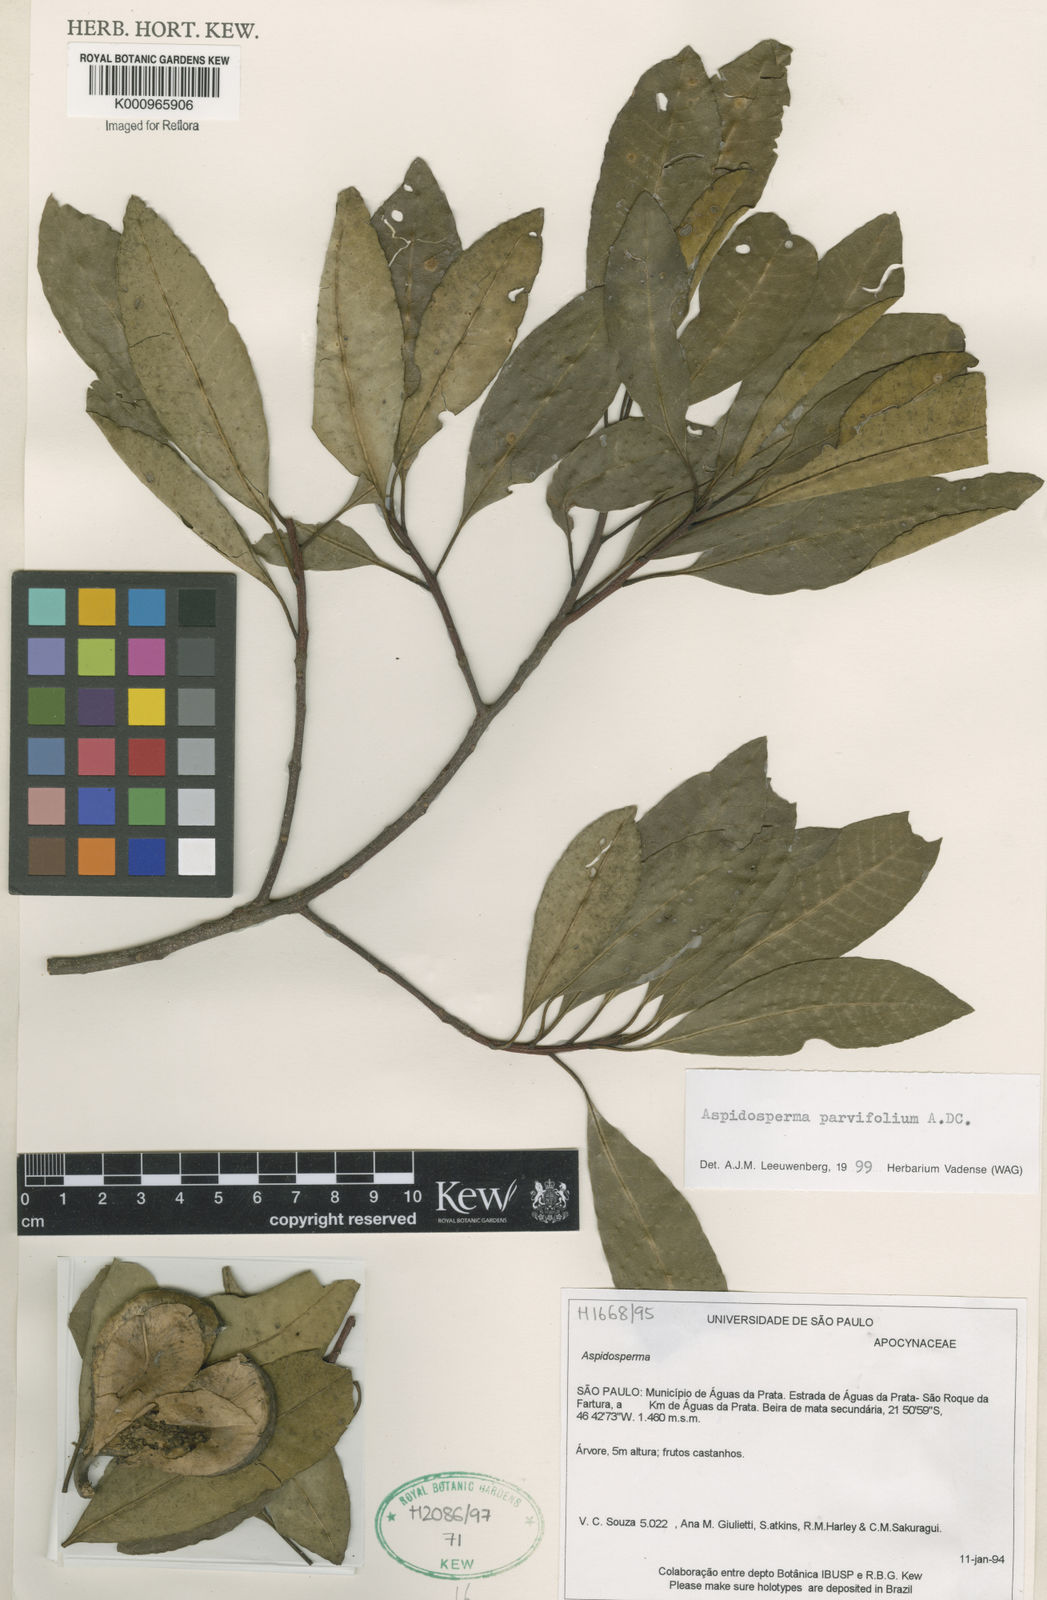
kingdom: Plantae
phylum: Tracheophyta
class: Magnoliopsida
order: Gentianales
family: Apocynaceae
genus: Aspidosperma
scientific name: Aspidosperma
